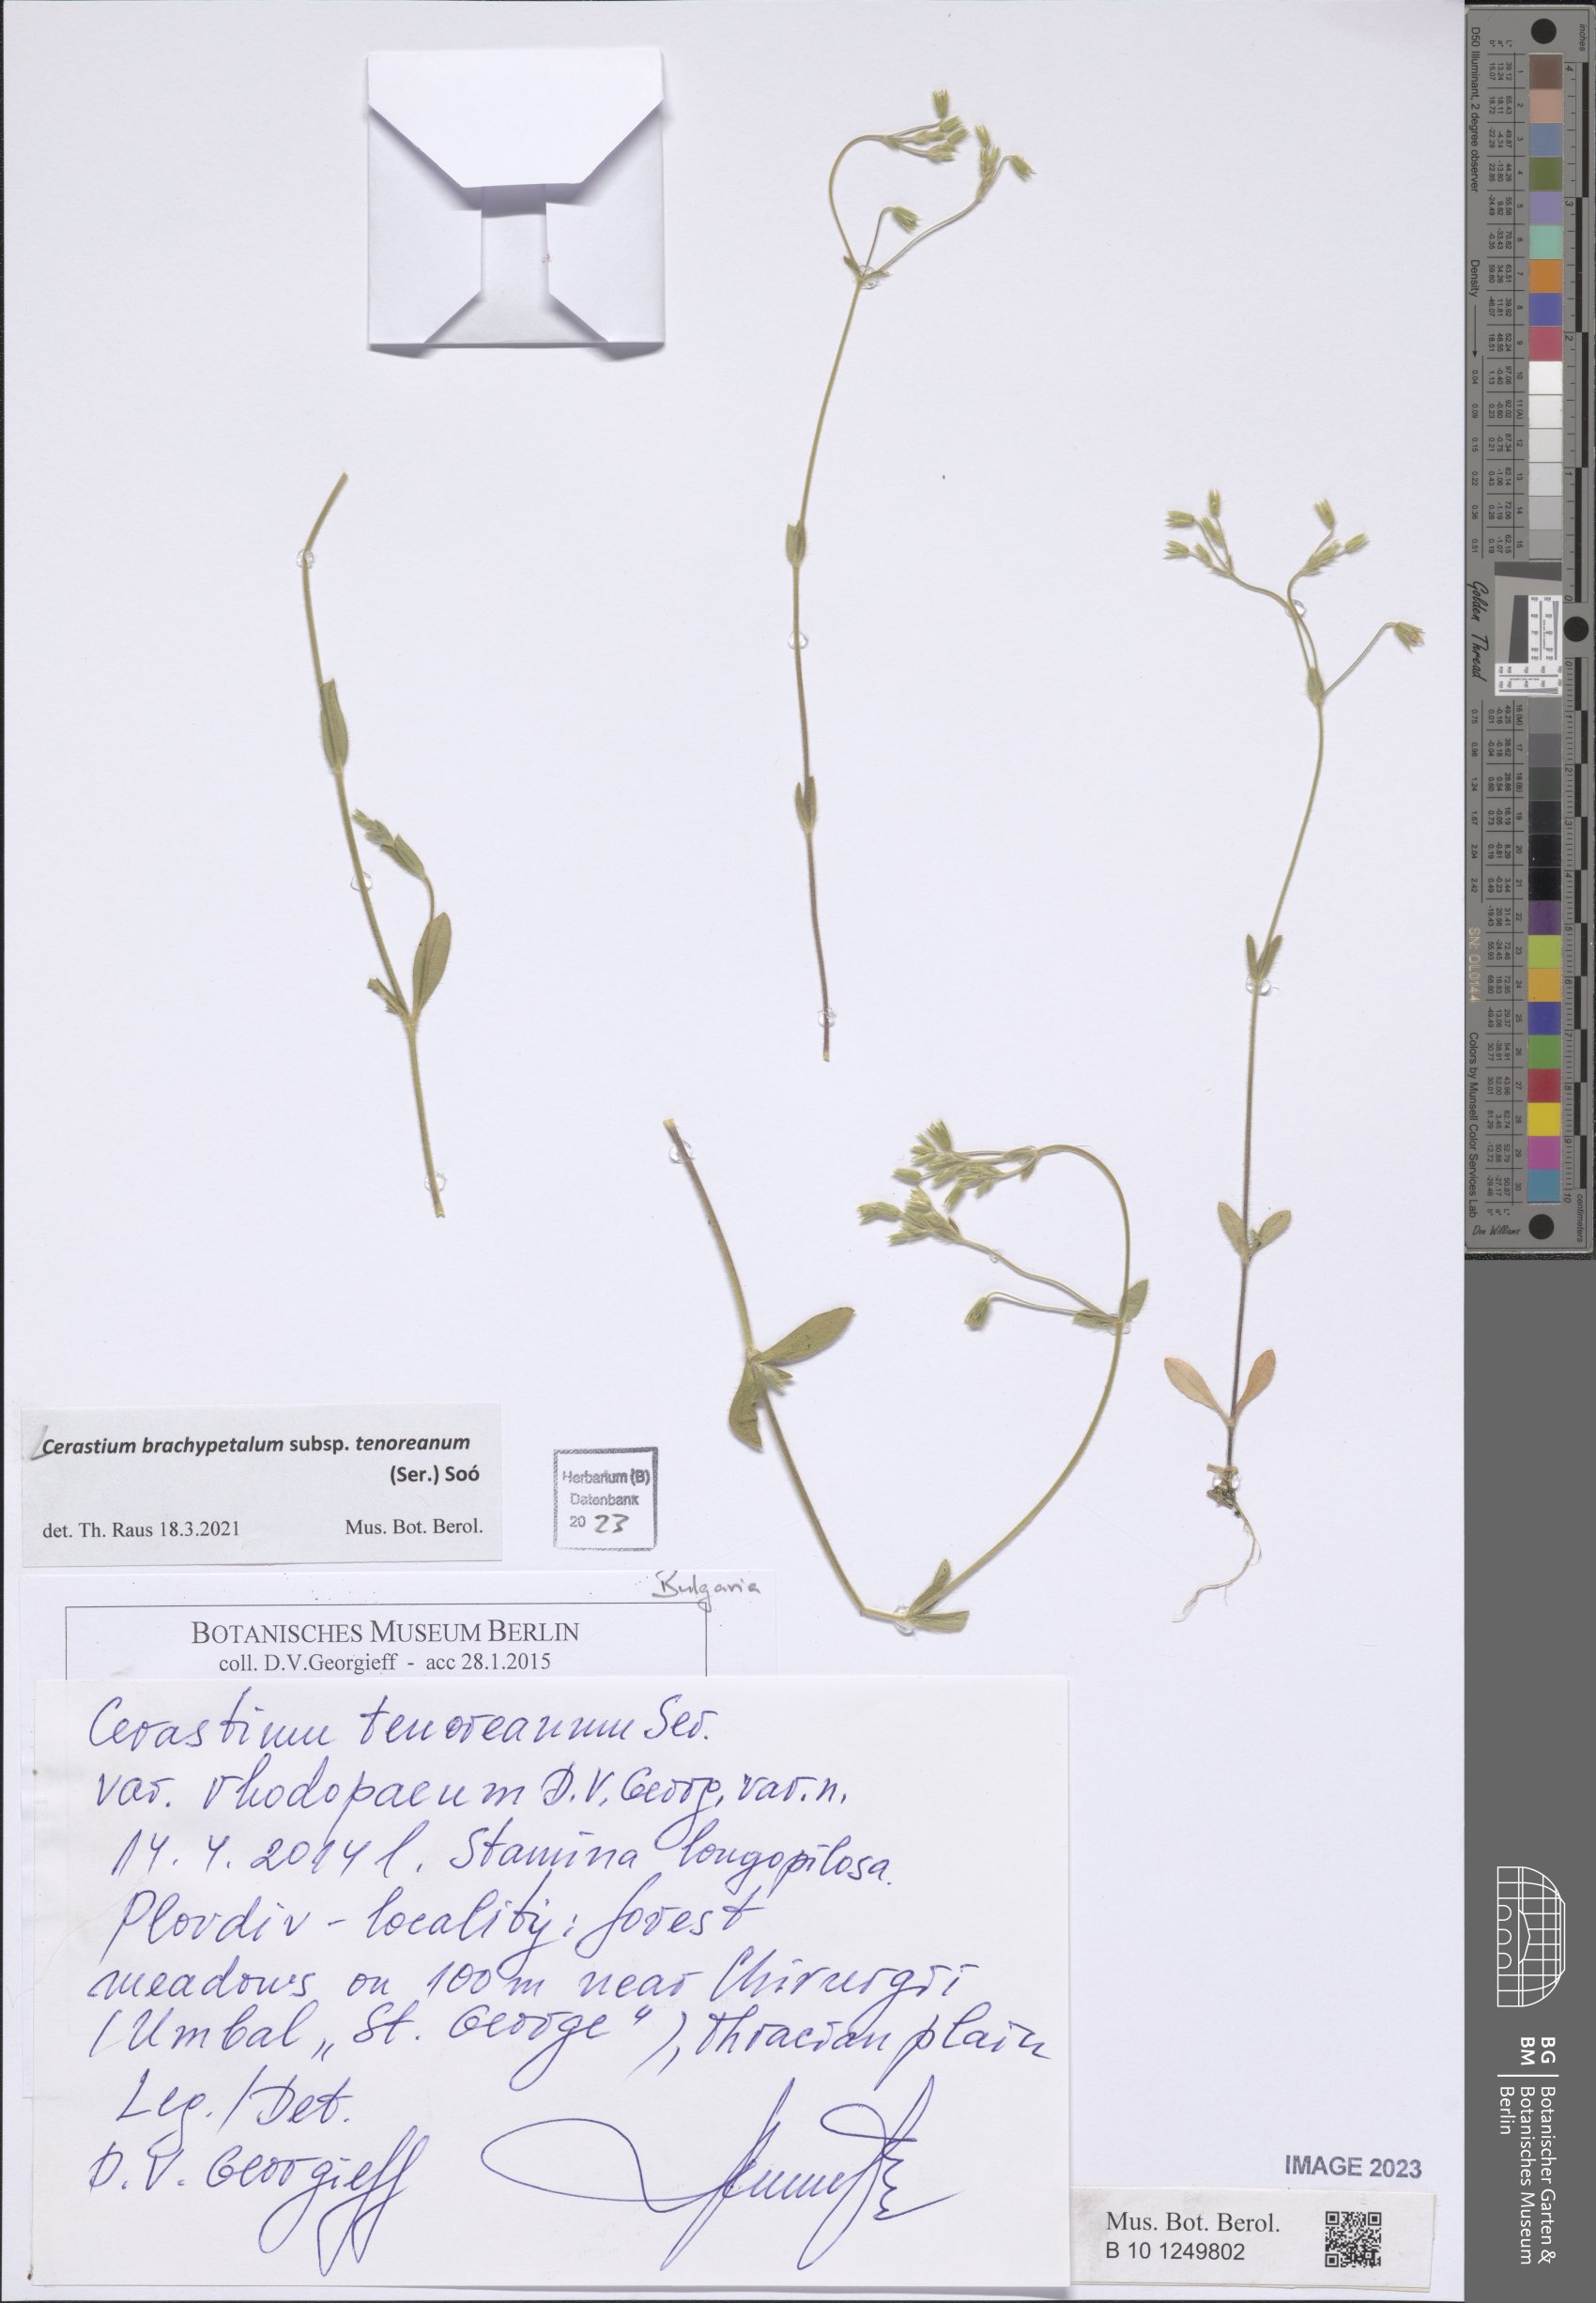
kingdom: Plantae
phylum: Tracheophyta
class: Magnoliopsida
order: Caryophyllales
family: Caryophyllaceae
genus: Cerastium
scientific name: Cerastium tenoreanum
